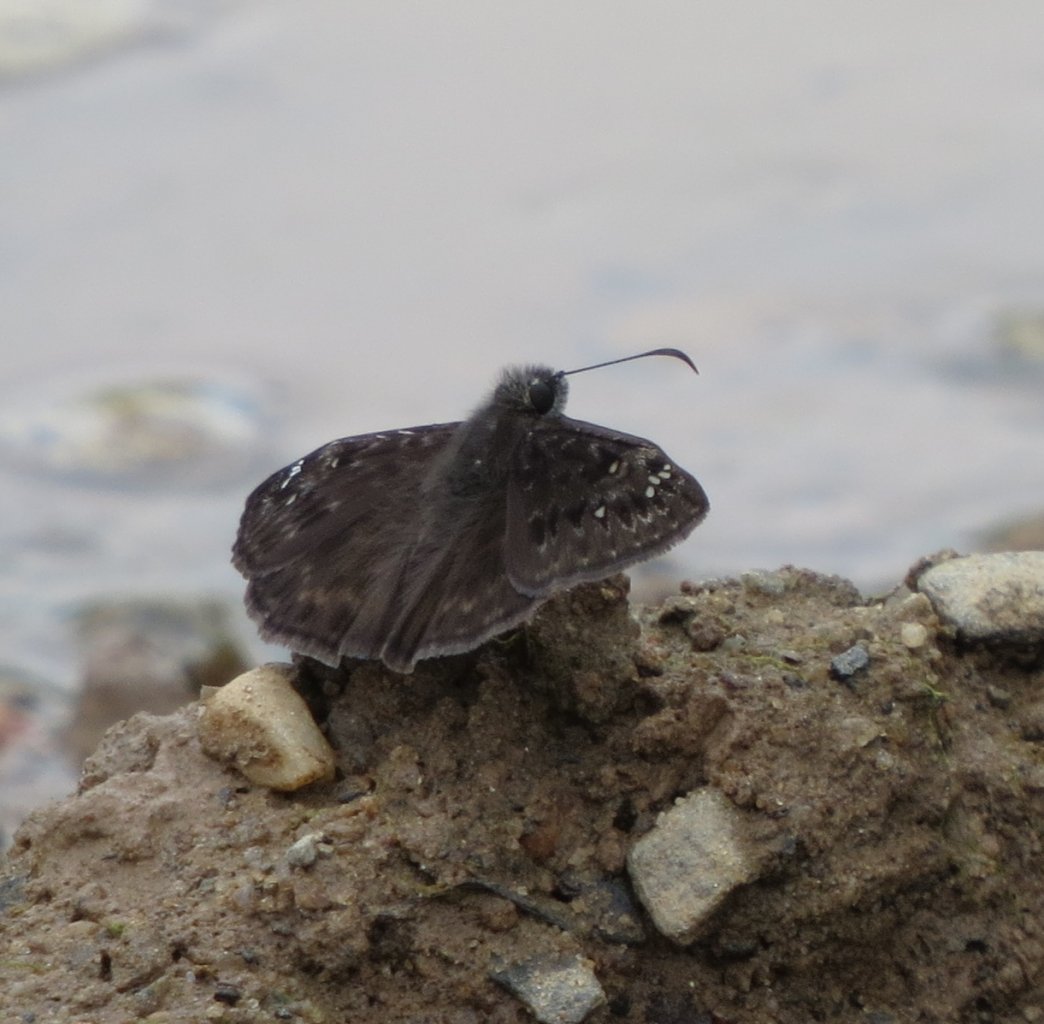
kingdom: Animalia
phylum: Arthropoda
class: Insecta
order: Lepidoptera
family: Hesperiidae
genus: Gesta
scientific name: Gesta
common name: Horace's Duskywing
